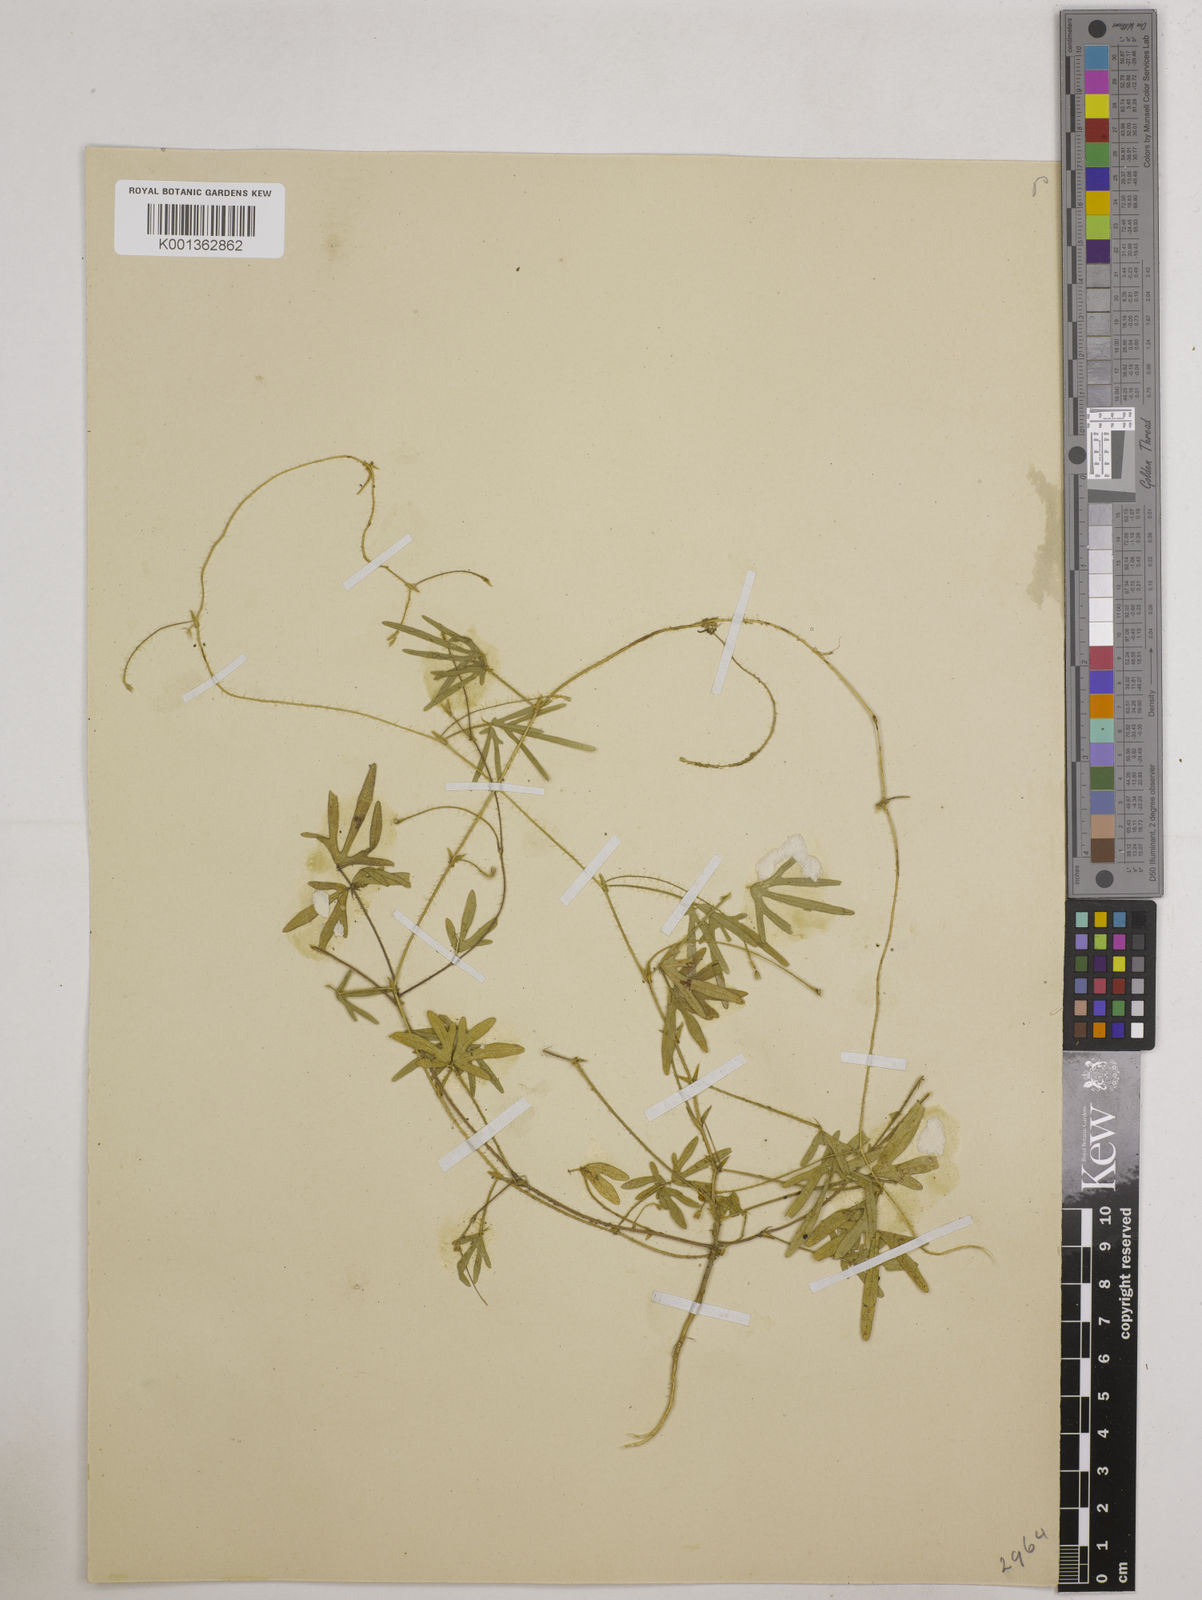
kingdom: Plantae
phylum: Tracheophyta
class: Magnoliopsida
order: Fabales
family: Fabaceae
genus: Vigna
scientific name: Vigna aconitifolia
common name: Dew bean
